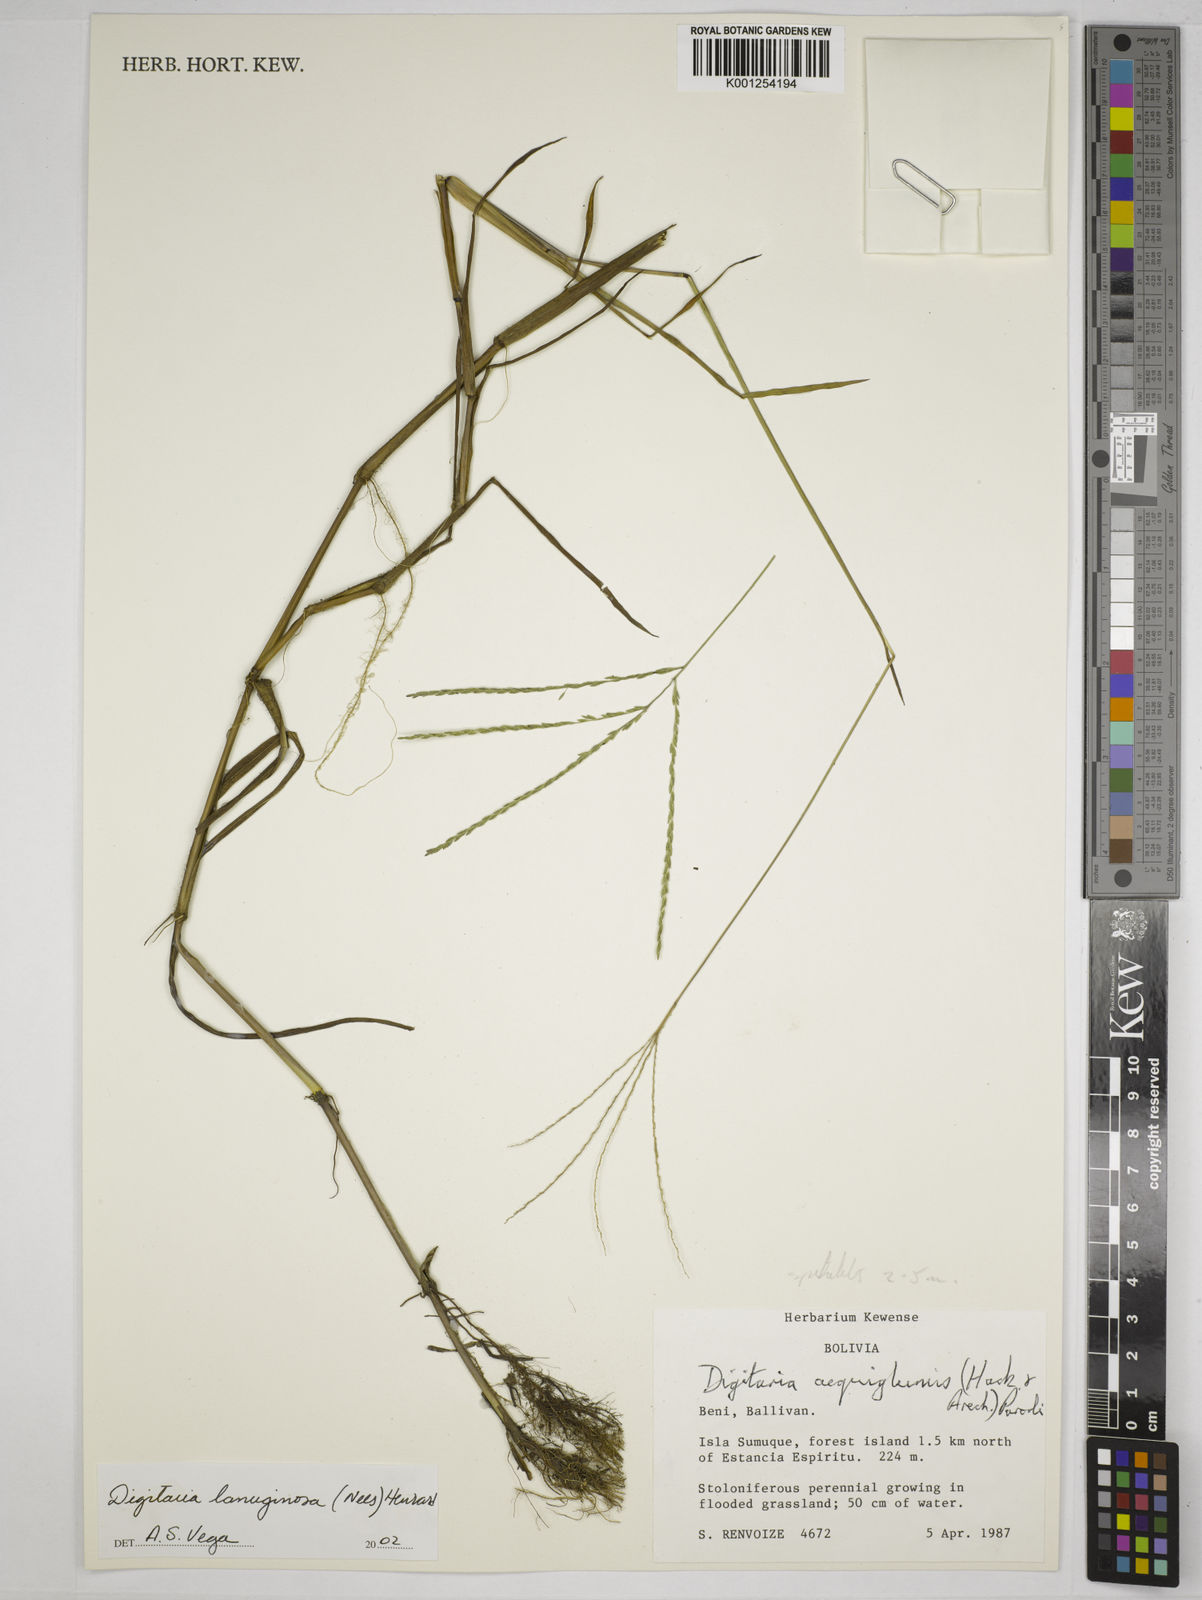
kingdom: Plantae
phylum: Tracheophyta
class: Liliopsida
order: Poales
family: Poaceae
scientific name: Poaceae
